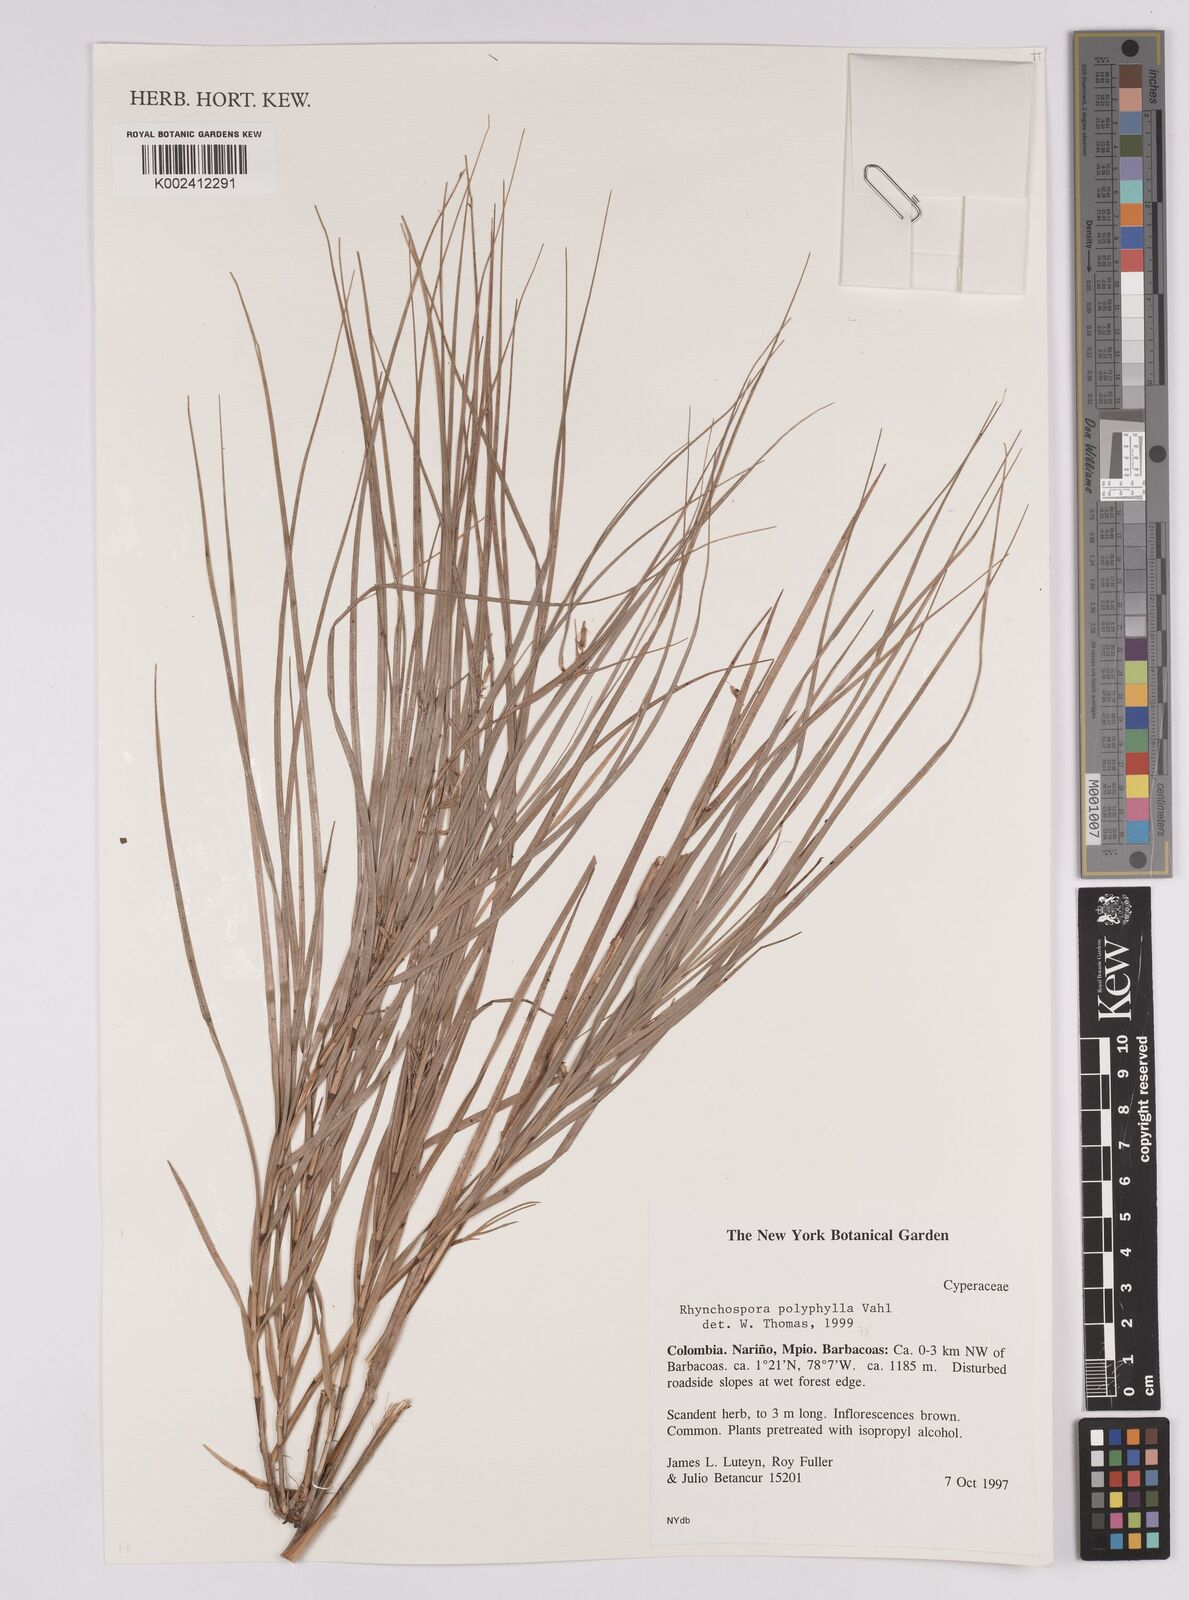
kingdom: Plantae
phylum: Tracheophyta
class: Liliopsida
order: Poales
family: Cyperaceae
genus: Rhynchospora
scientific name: Rhynchospora polyphylla
